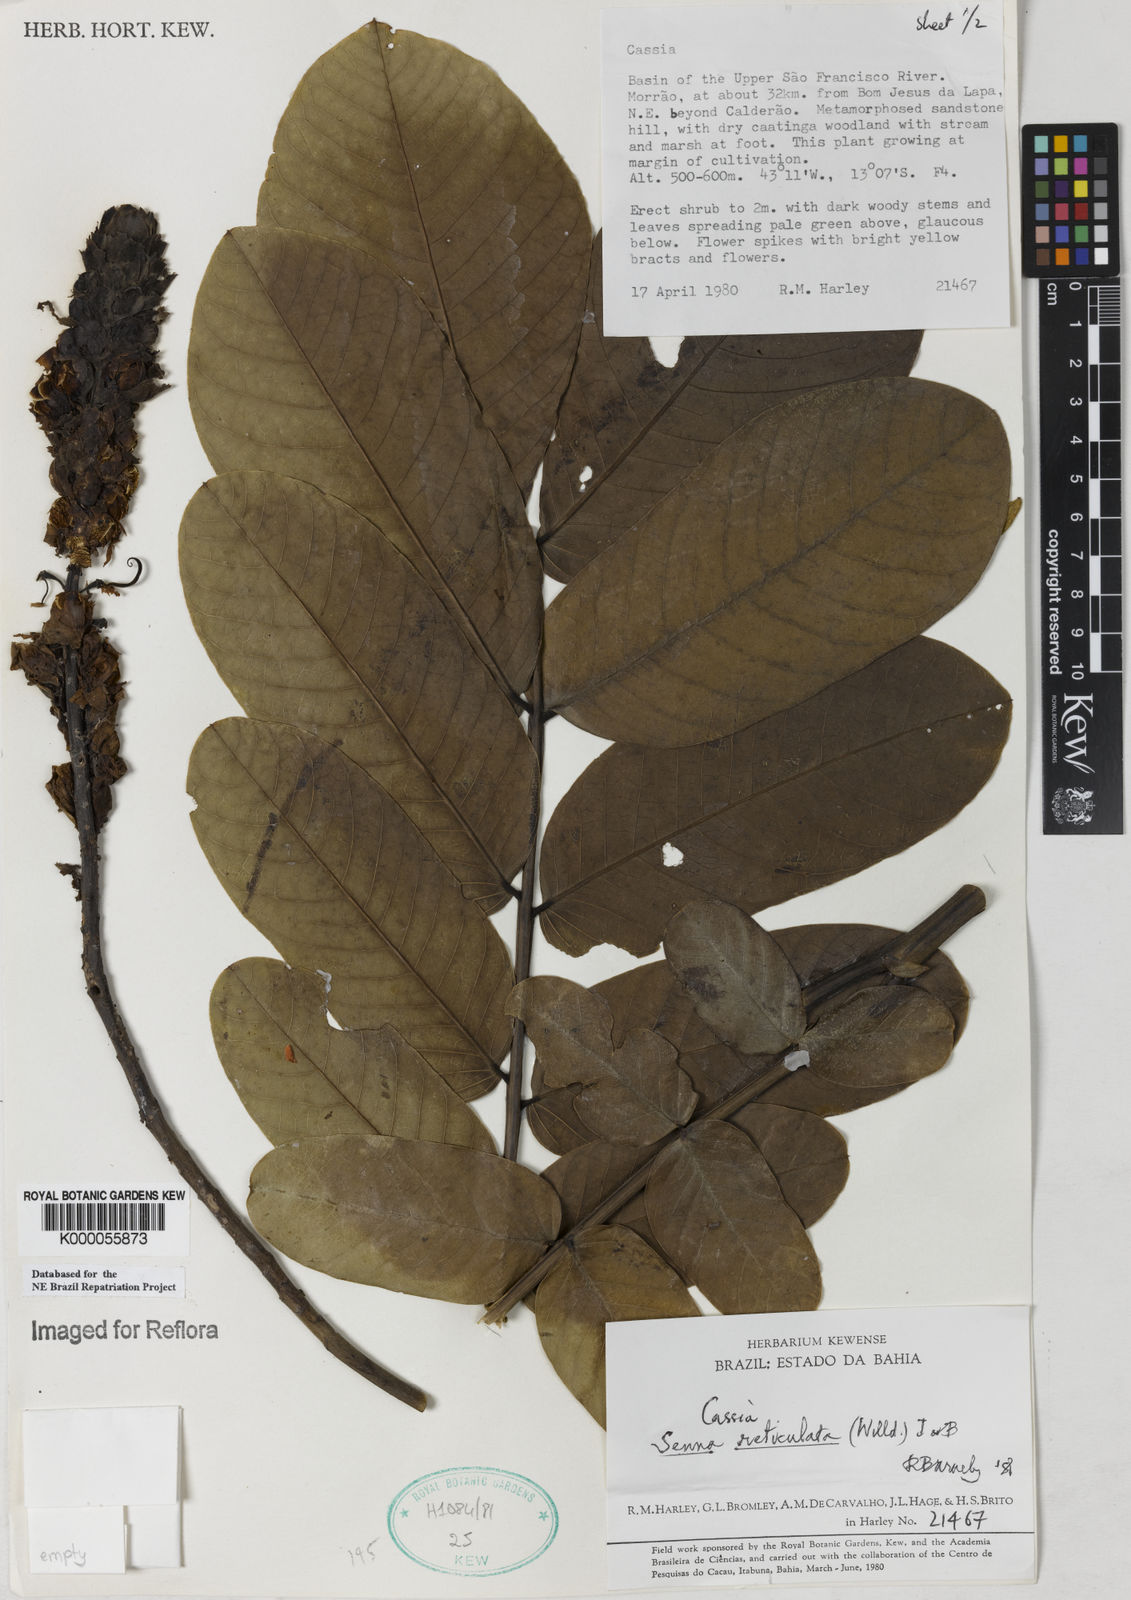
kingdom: Plantae
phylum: Tracheophyta
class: Magnoliopsida
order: Fabales
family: Fabaceae
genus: Senna
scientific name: Senna reticulata
